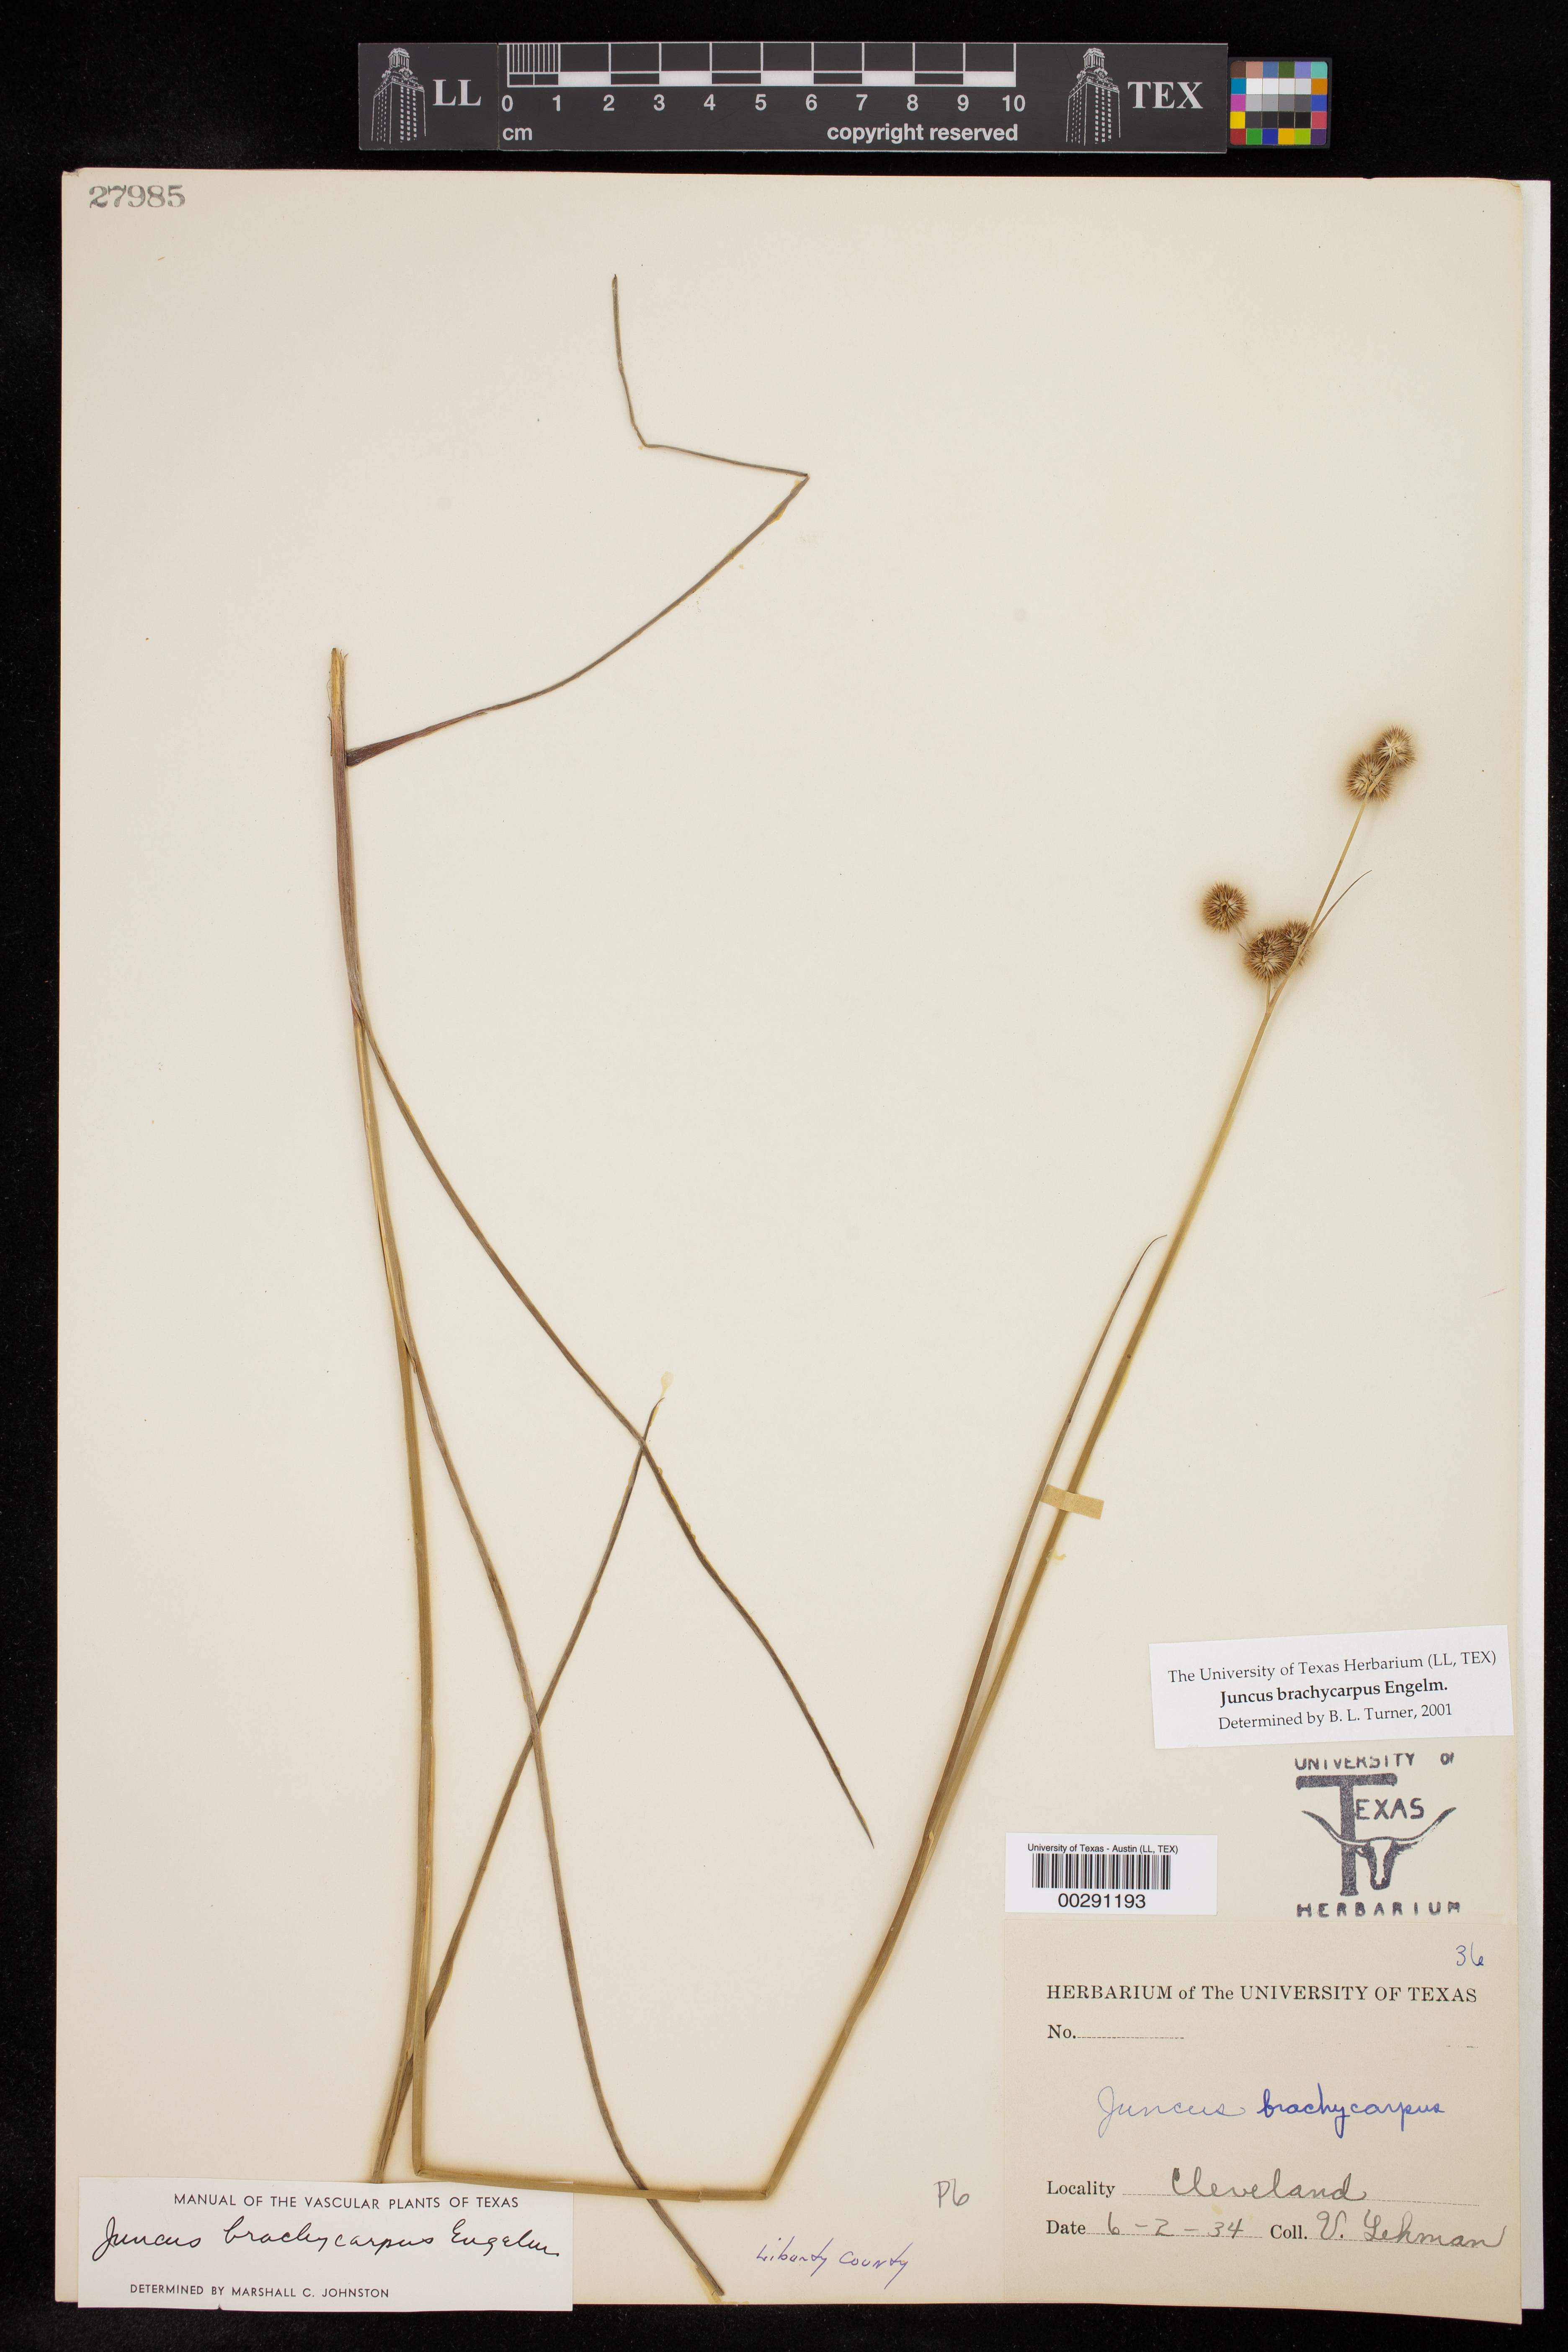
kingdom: Plantae
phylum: Tracheophyta
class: Liliopsida
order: Poales
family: Juncaceae
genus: Juncus
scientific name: Juncus brachycarpus
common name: Shore rush
